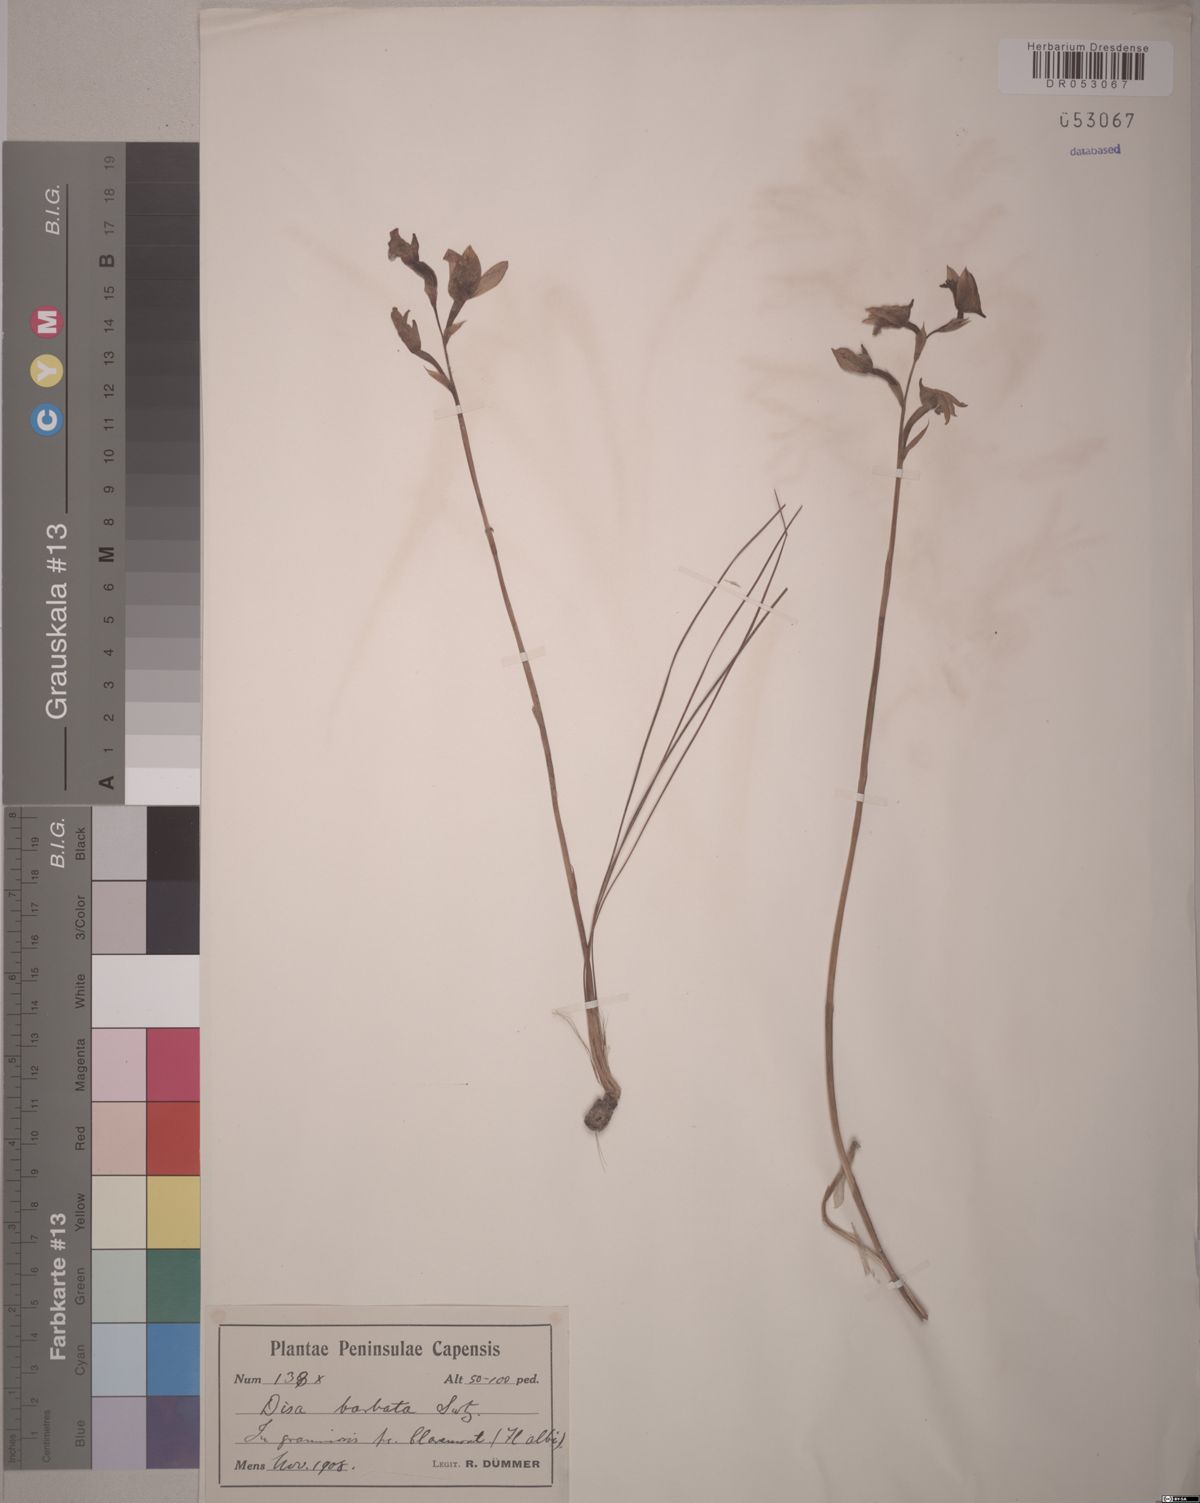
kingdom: Plantae
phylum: Tracheophyta
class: Liliopsida
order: Asparagales
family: Orchidaceae
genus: Disa
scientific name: Disa barbata
